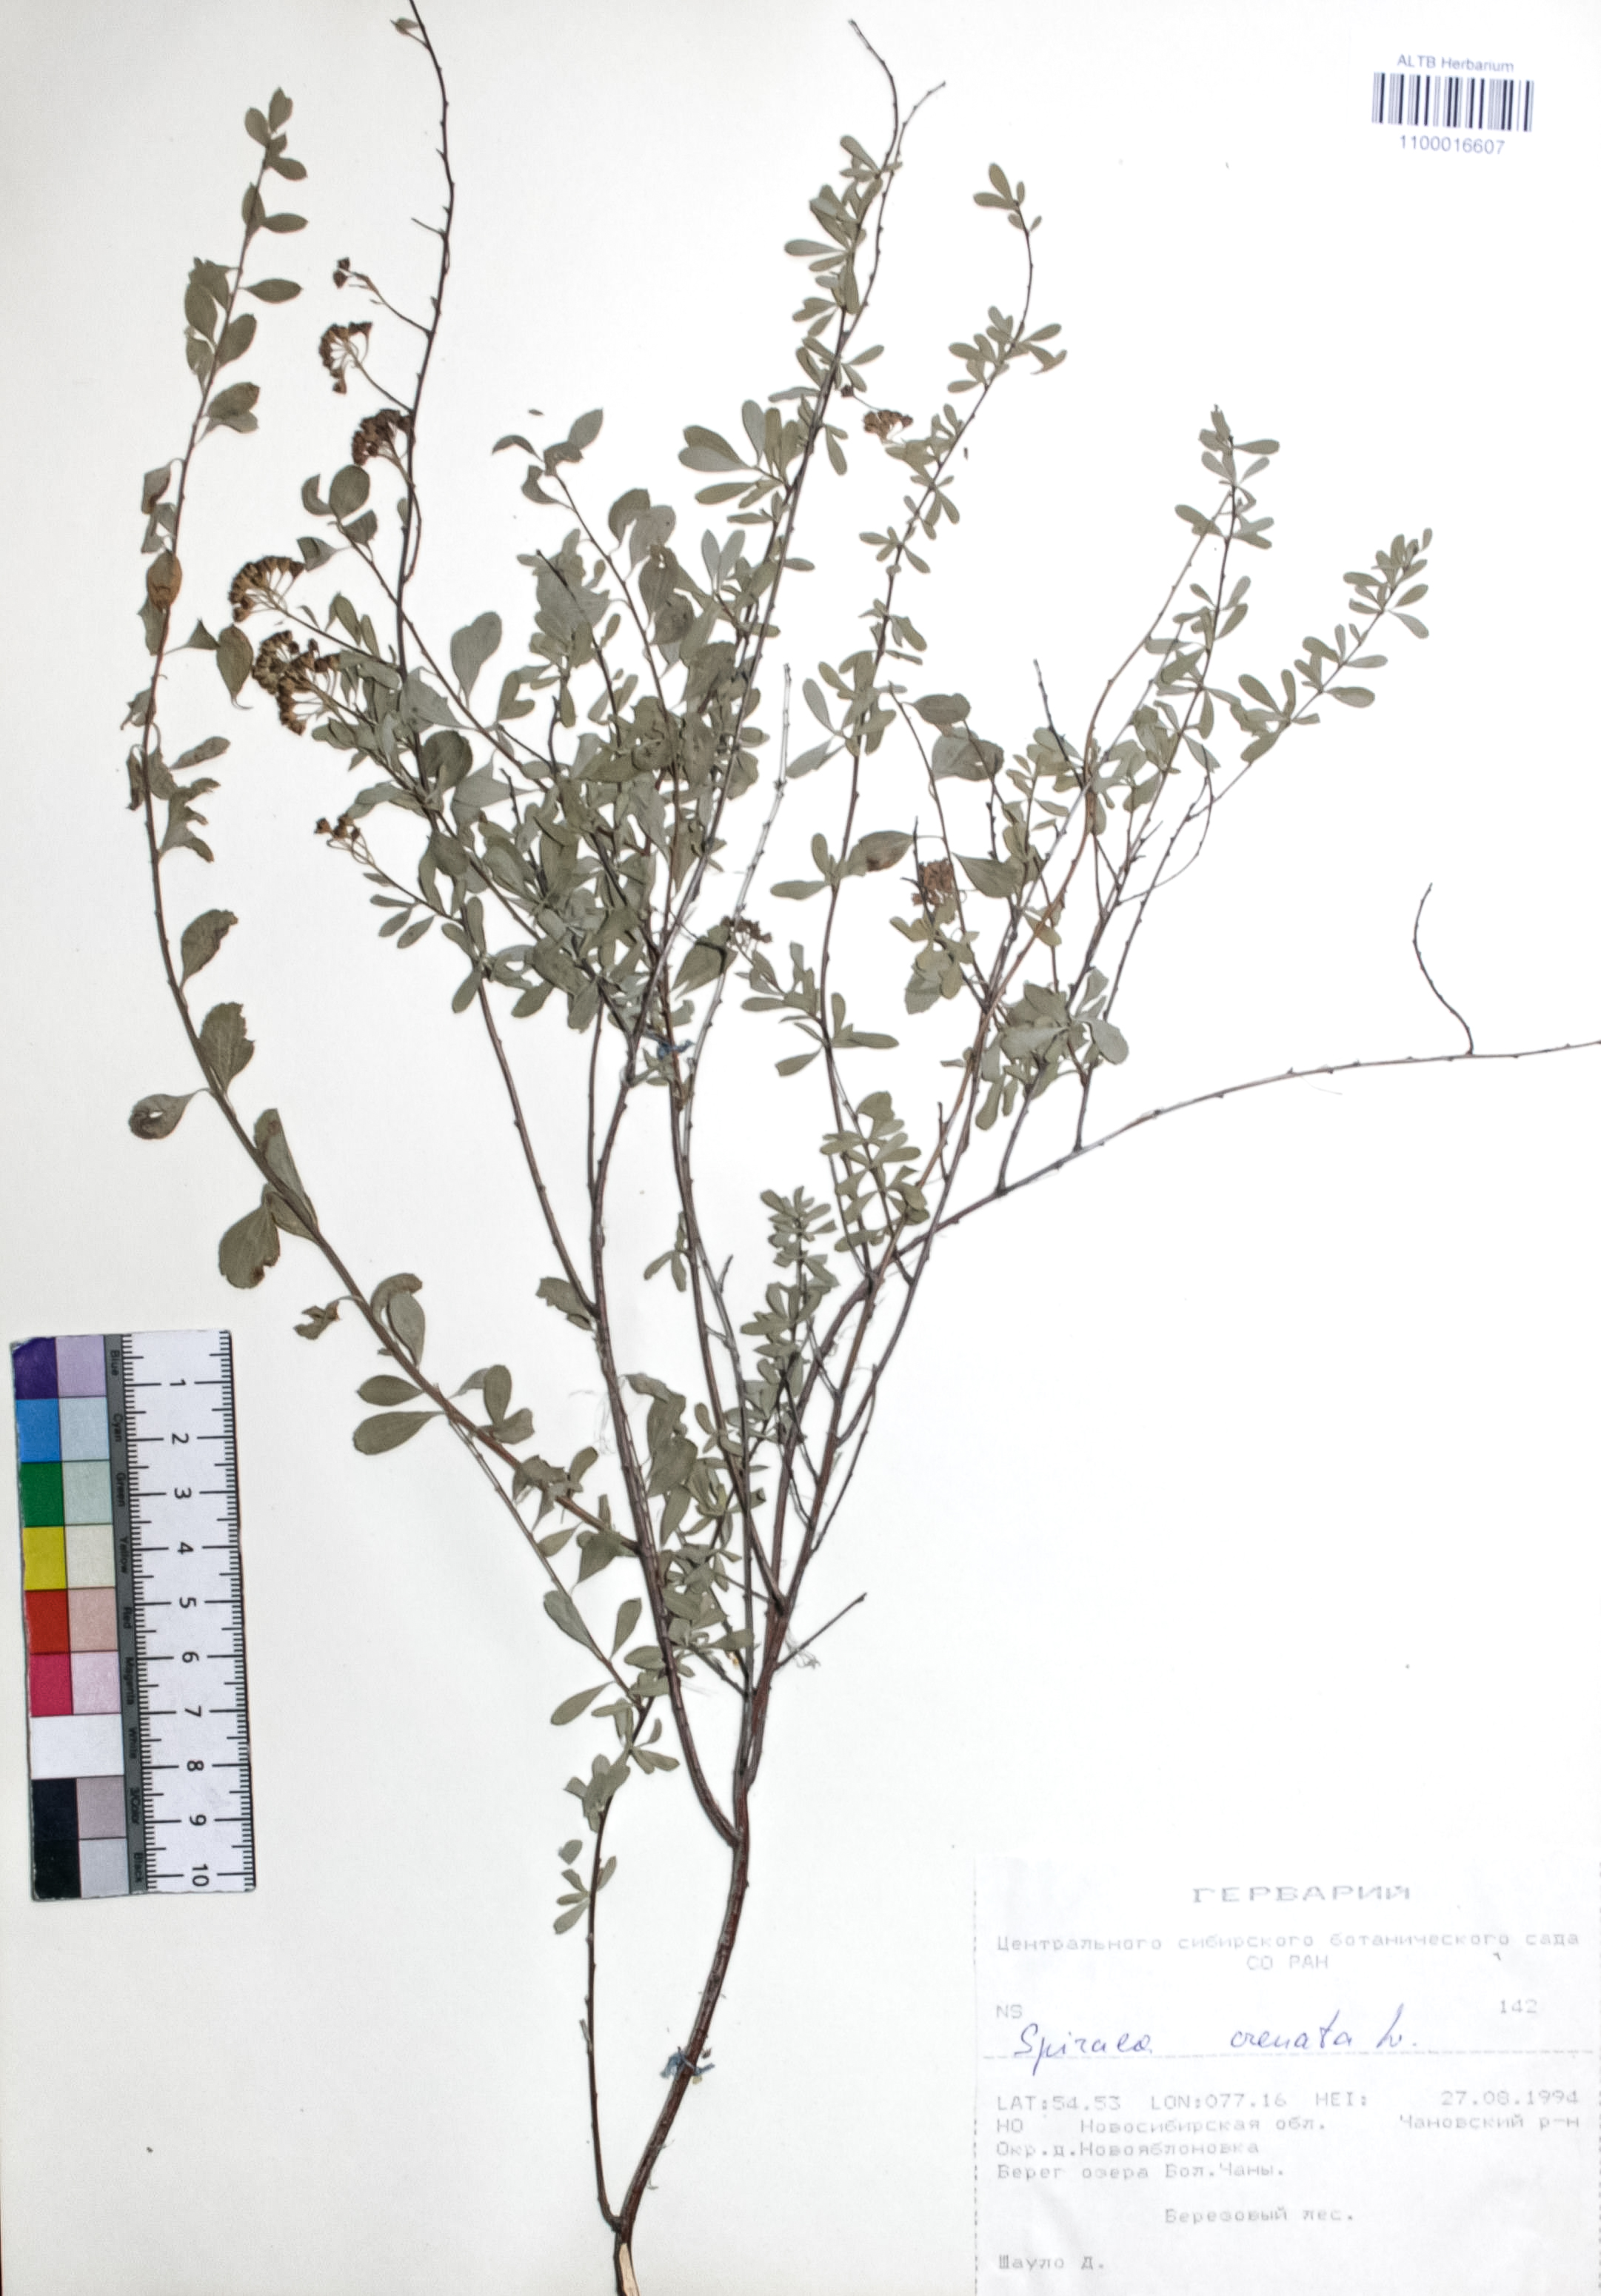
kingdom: Plantae
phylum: Tracheophyta
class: Magnoliopsida
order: Rosales
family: Rosaceae
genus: Spiraea
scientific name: Spiraea crenata
